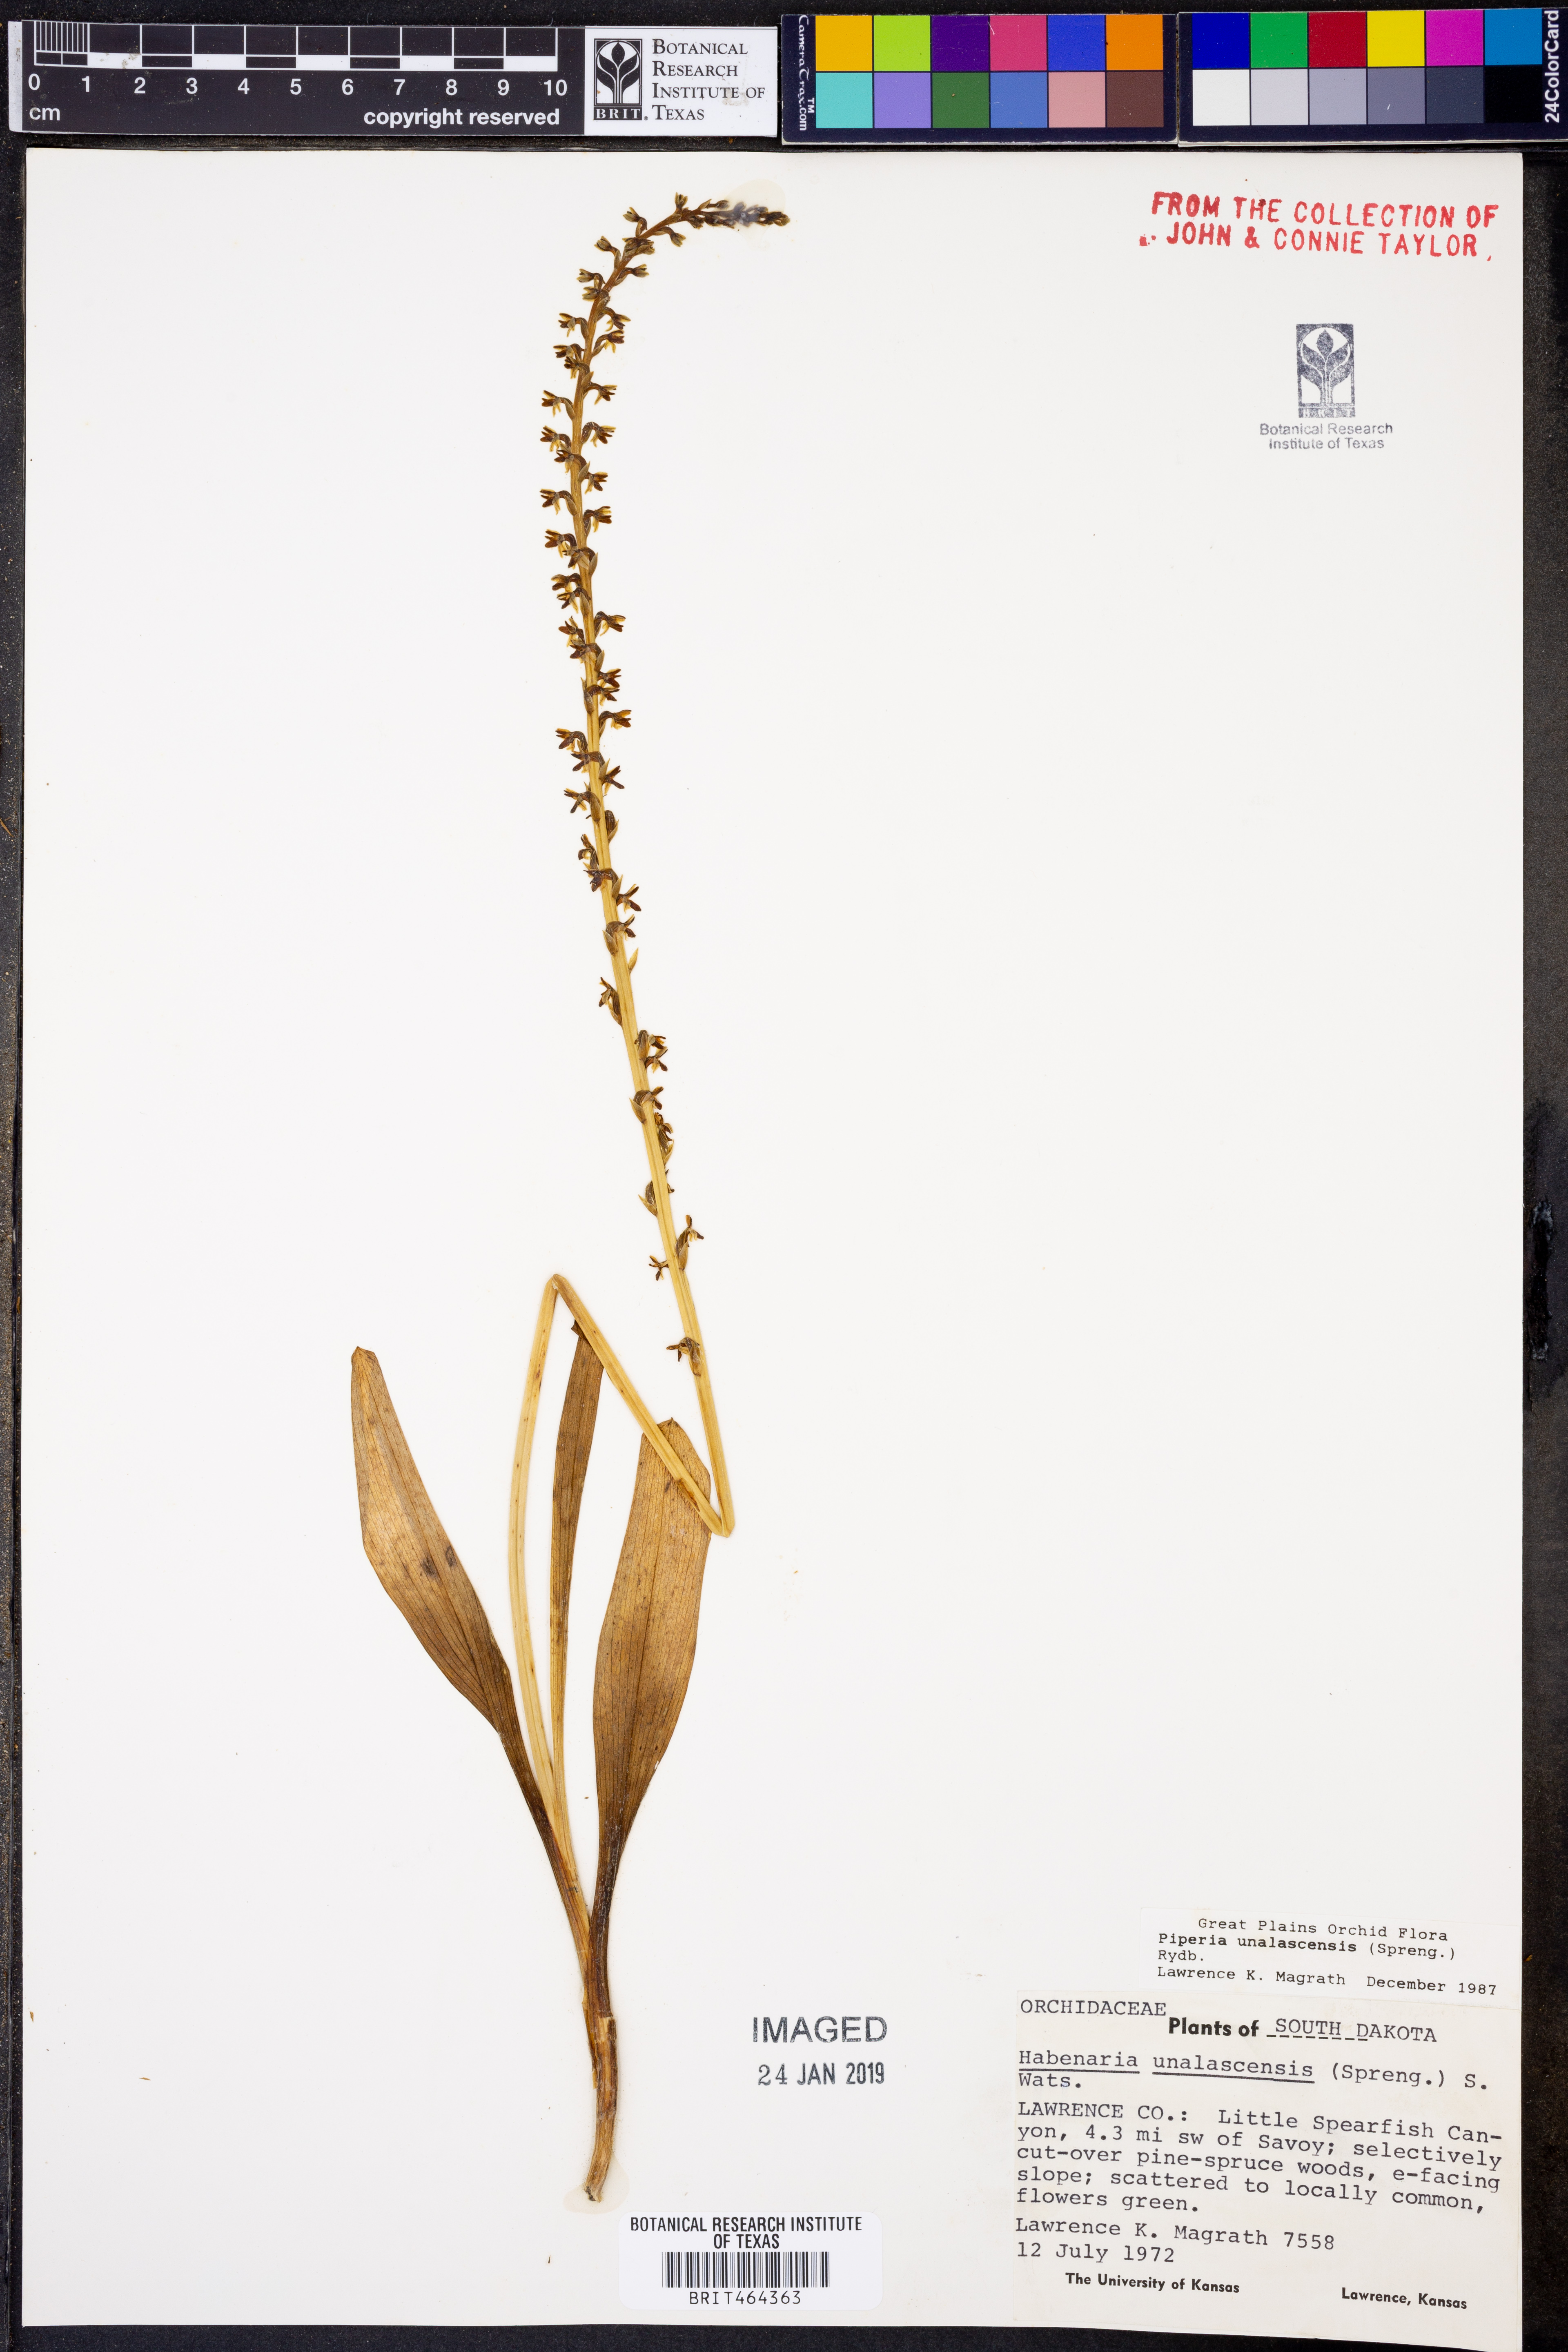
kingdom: Plantae
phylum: Tracheophyta
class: Liliopsida
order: Asparagales
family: Orchidaceae
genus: Platanthera
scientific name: Platanthera unalascensis
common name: Alaska bog orchid
